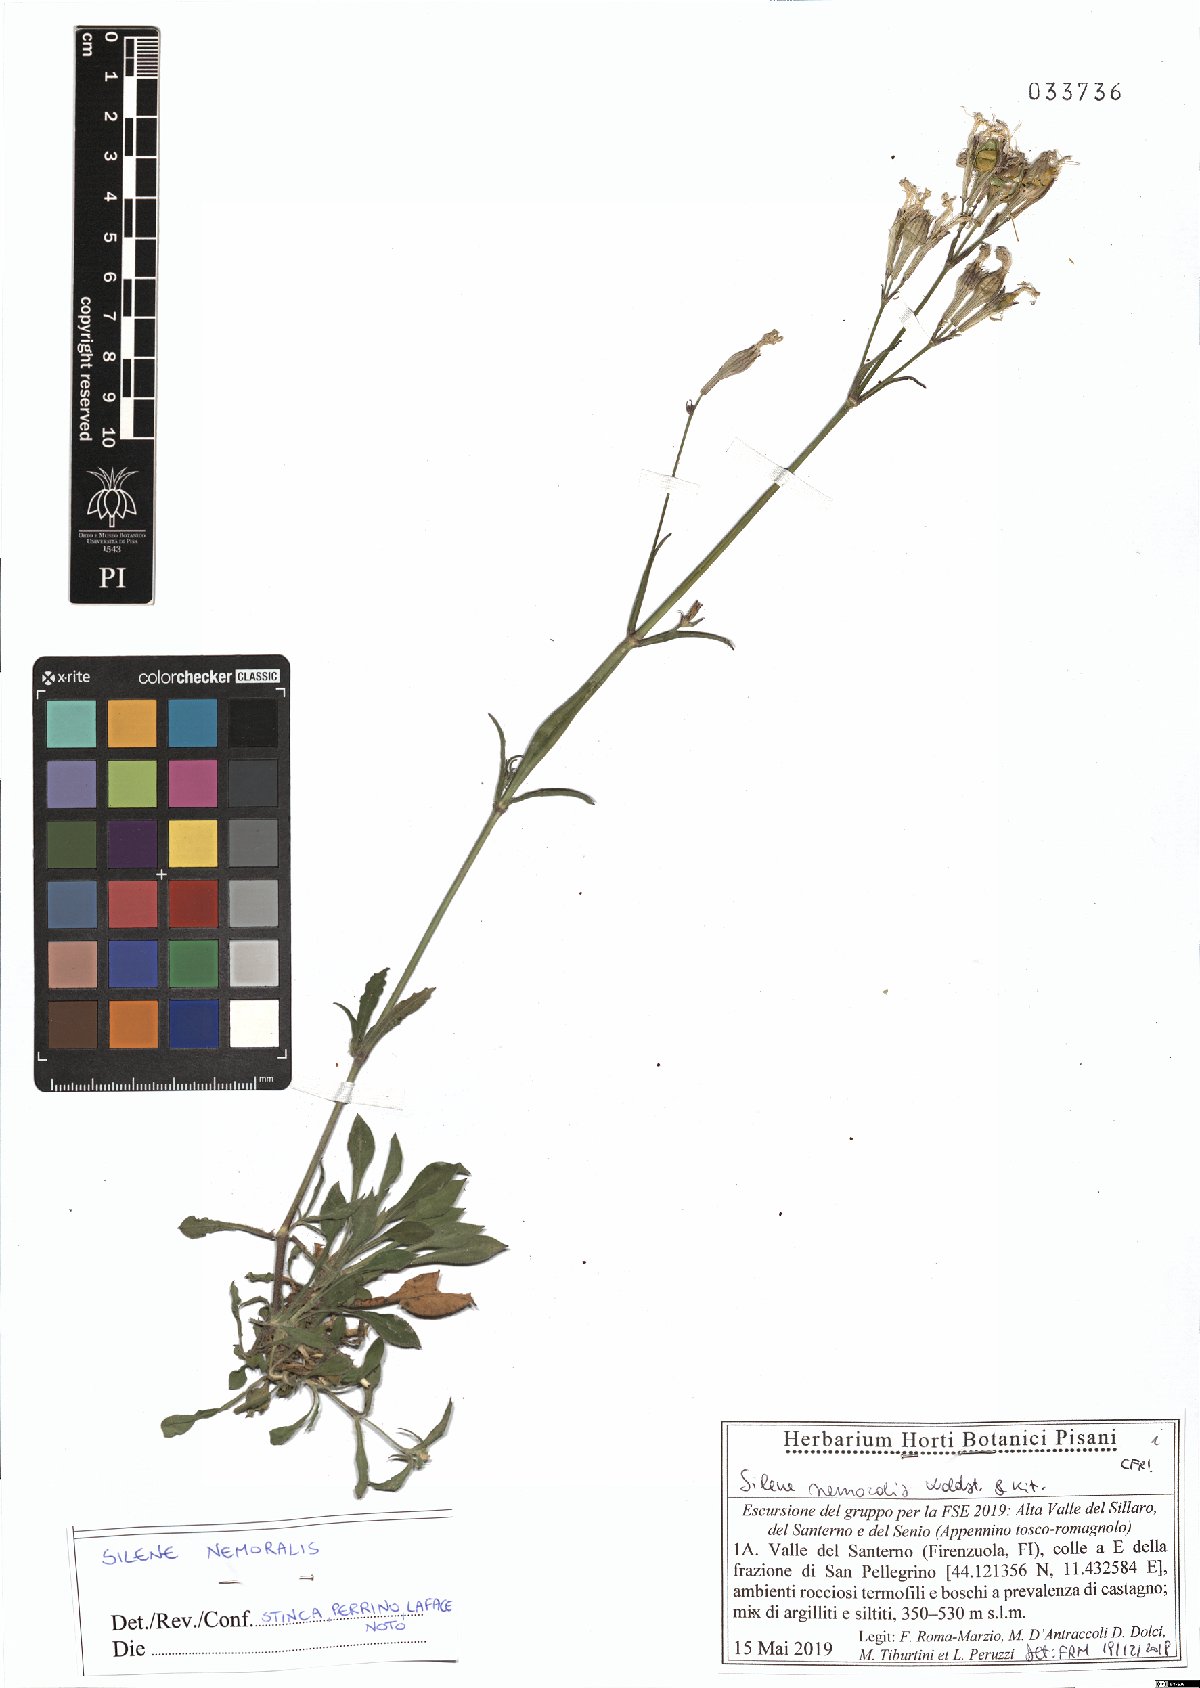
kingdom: Plantae
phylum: Tracheophyta
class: Magnoliopsida
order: Caryophyllales
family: Caryophyllaceae
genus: Silene
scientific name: Silene nemoralis
